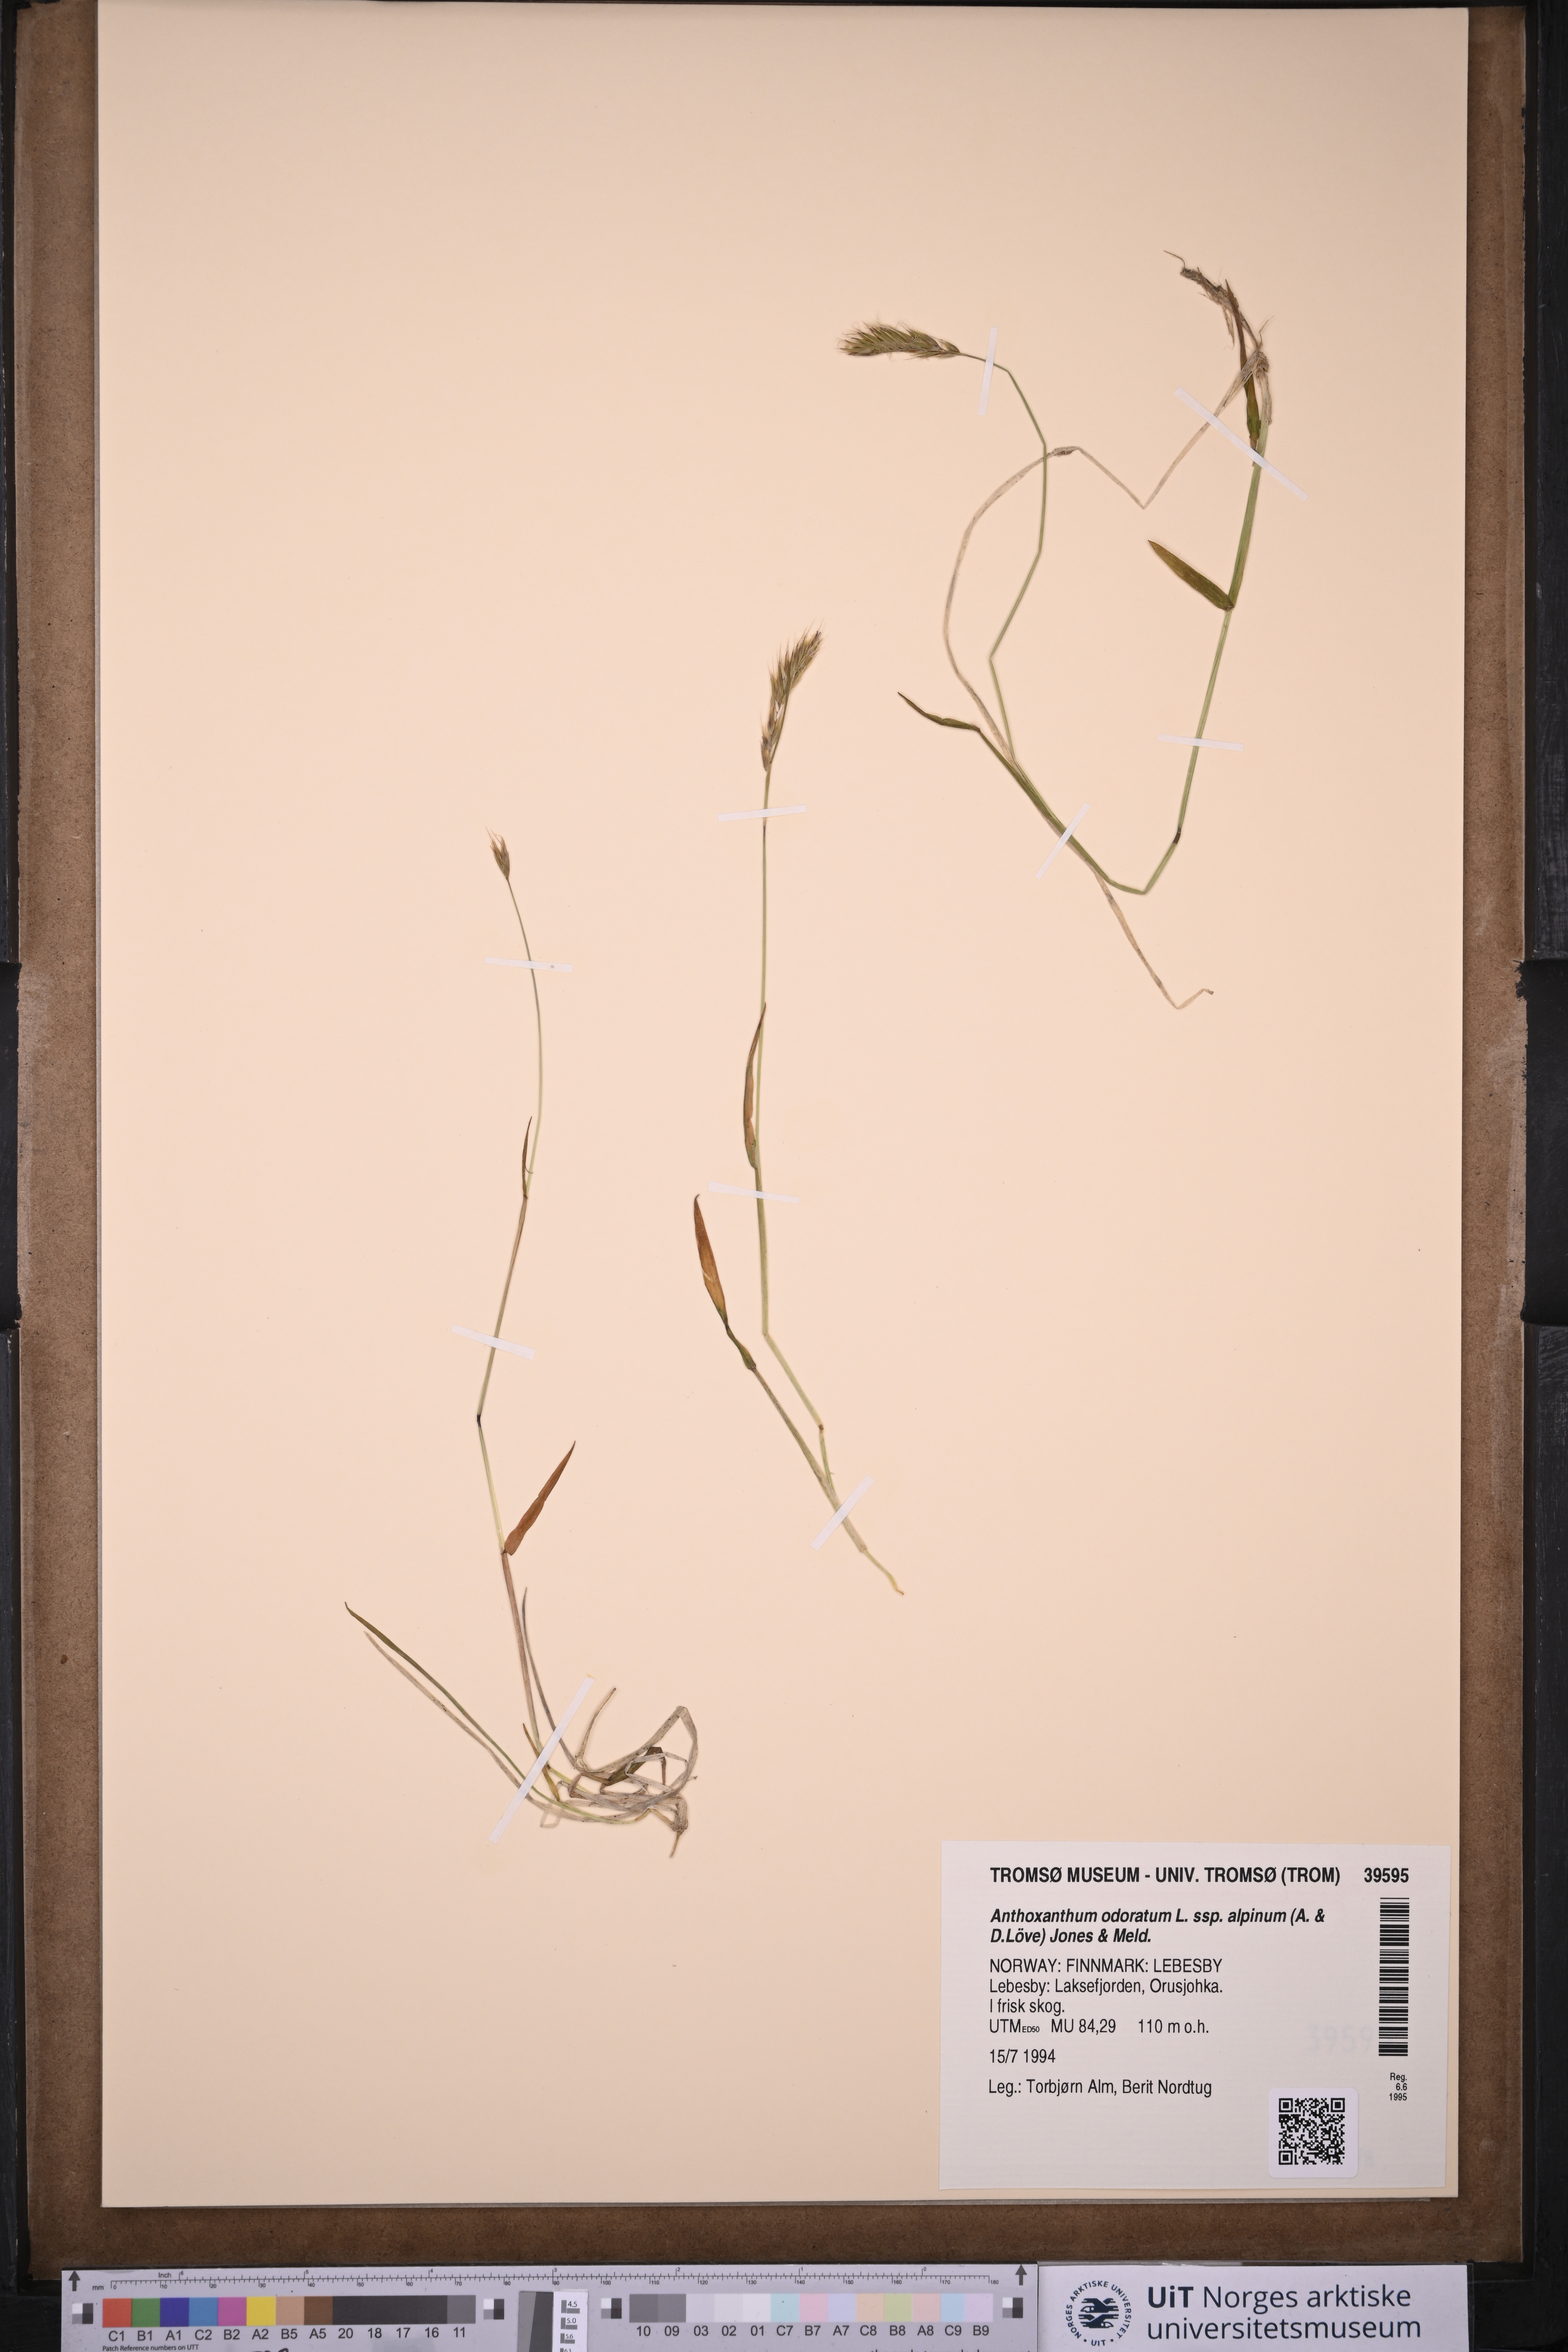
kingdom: Plantae
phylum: Tracheophyta
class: Liliopsida
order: Poales
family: Poaceae
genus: Anthoxanthum
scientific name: Anthoxanthum nipponicum
